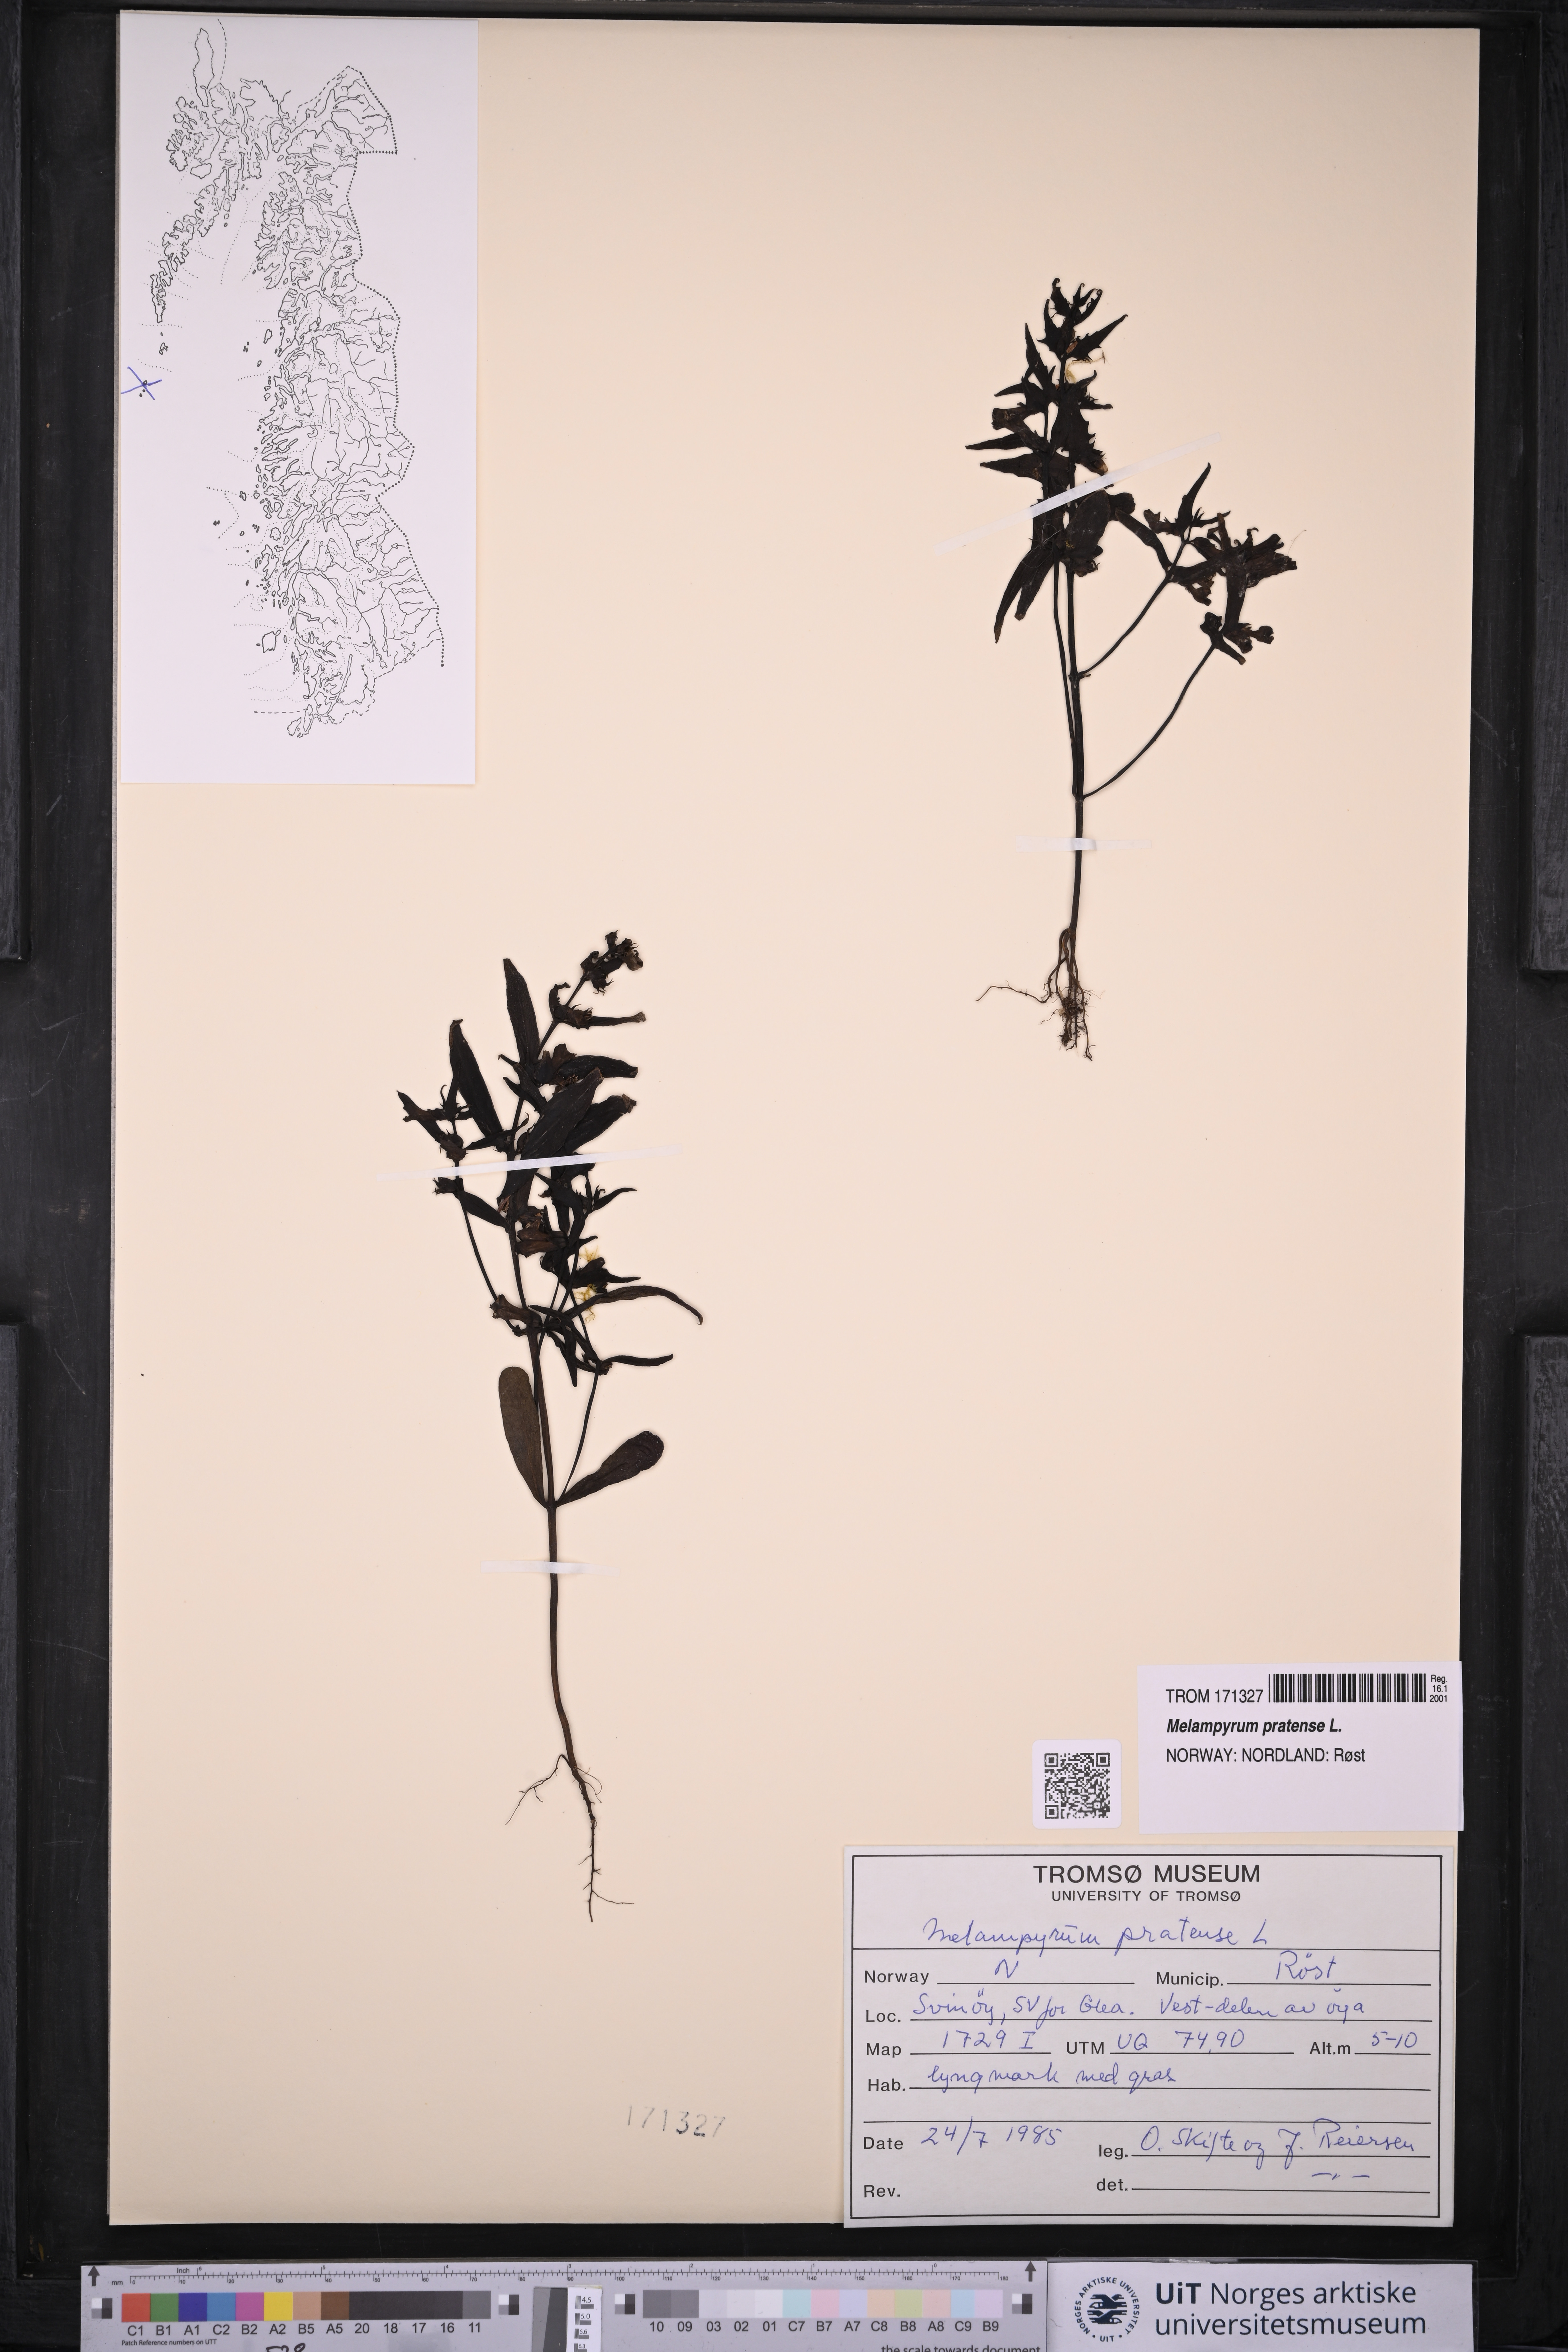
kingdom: Plantae
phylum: Tracheophyta
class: Magnoliopsida
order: Lamiales
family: Orobanchaceae
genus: Melampyrum
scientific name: Melampyrum pratense
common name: Common cow-wheat
